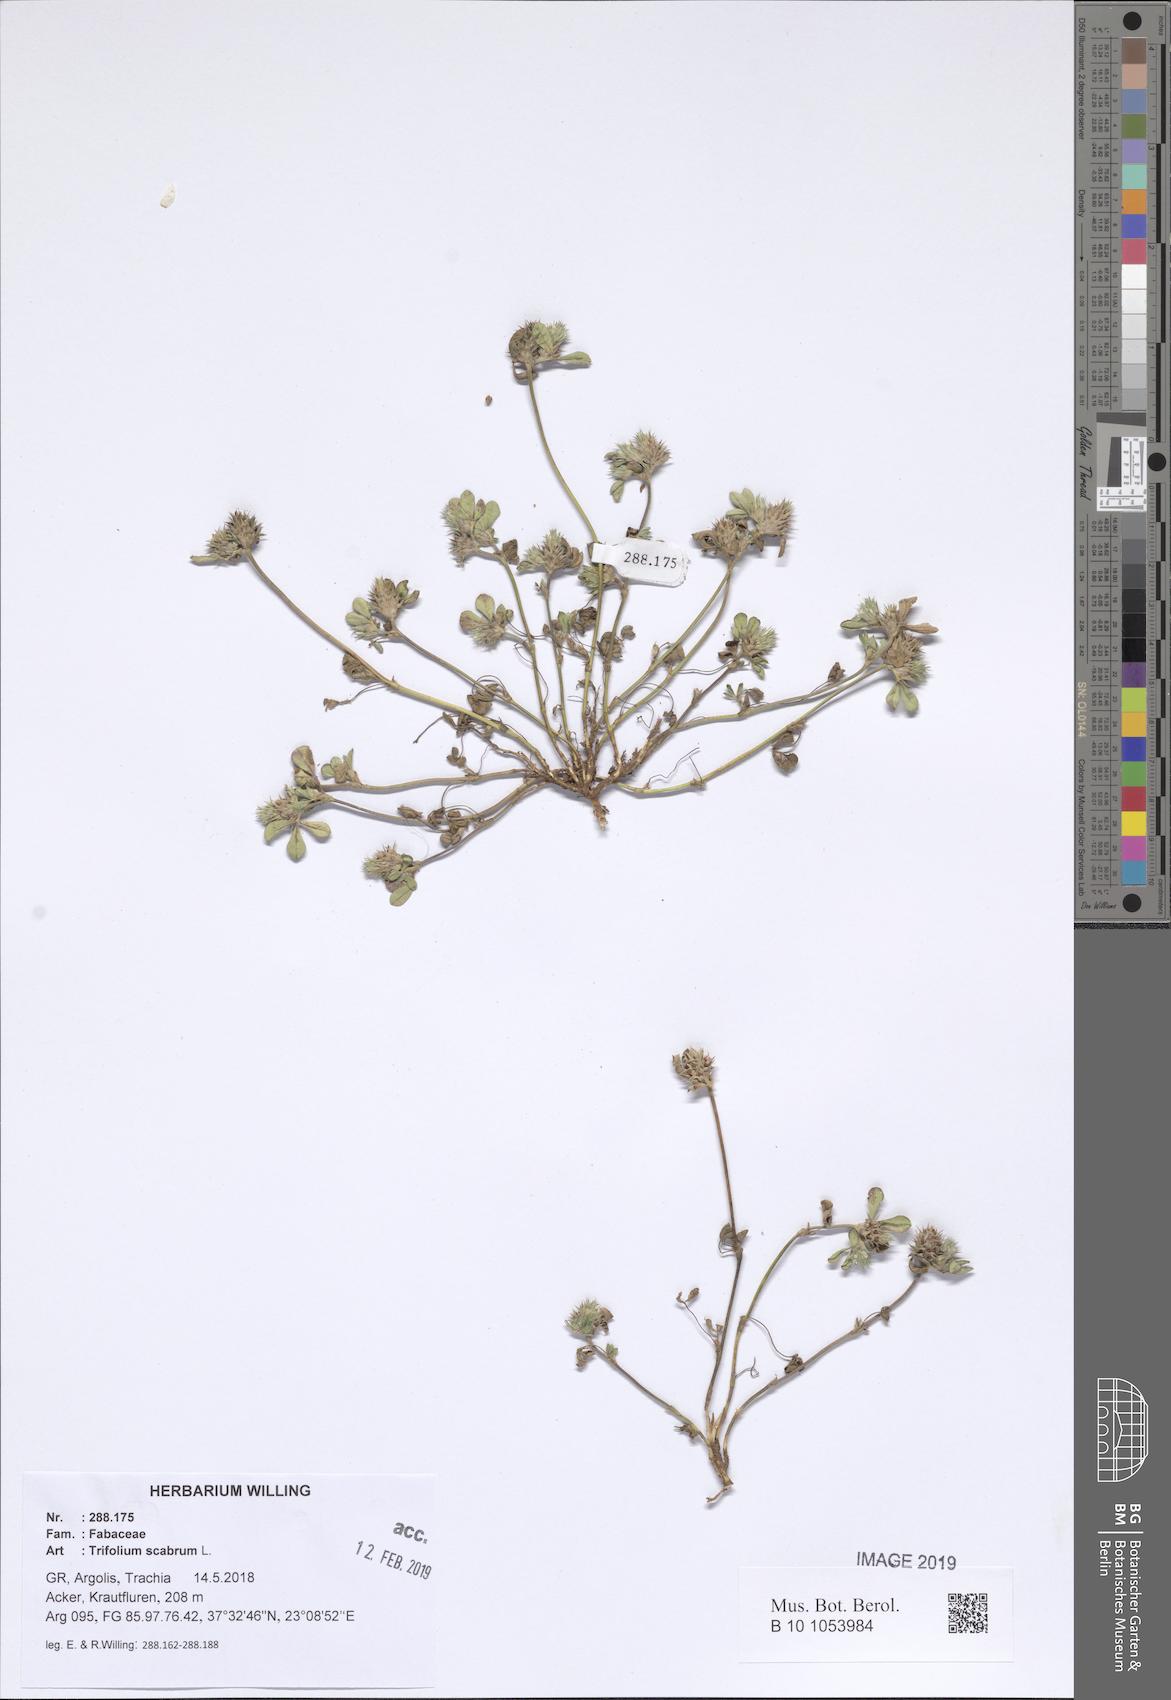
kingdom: Plantae
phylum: Tracheophyta
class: Magnoliopsida
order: Fabales
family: Fabaceae
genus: Trifolium
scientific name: Trifolium scabrum
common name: Rough clover
